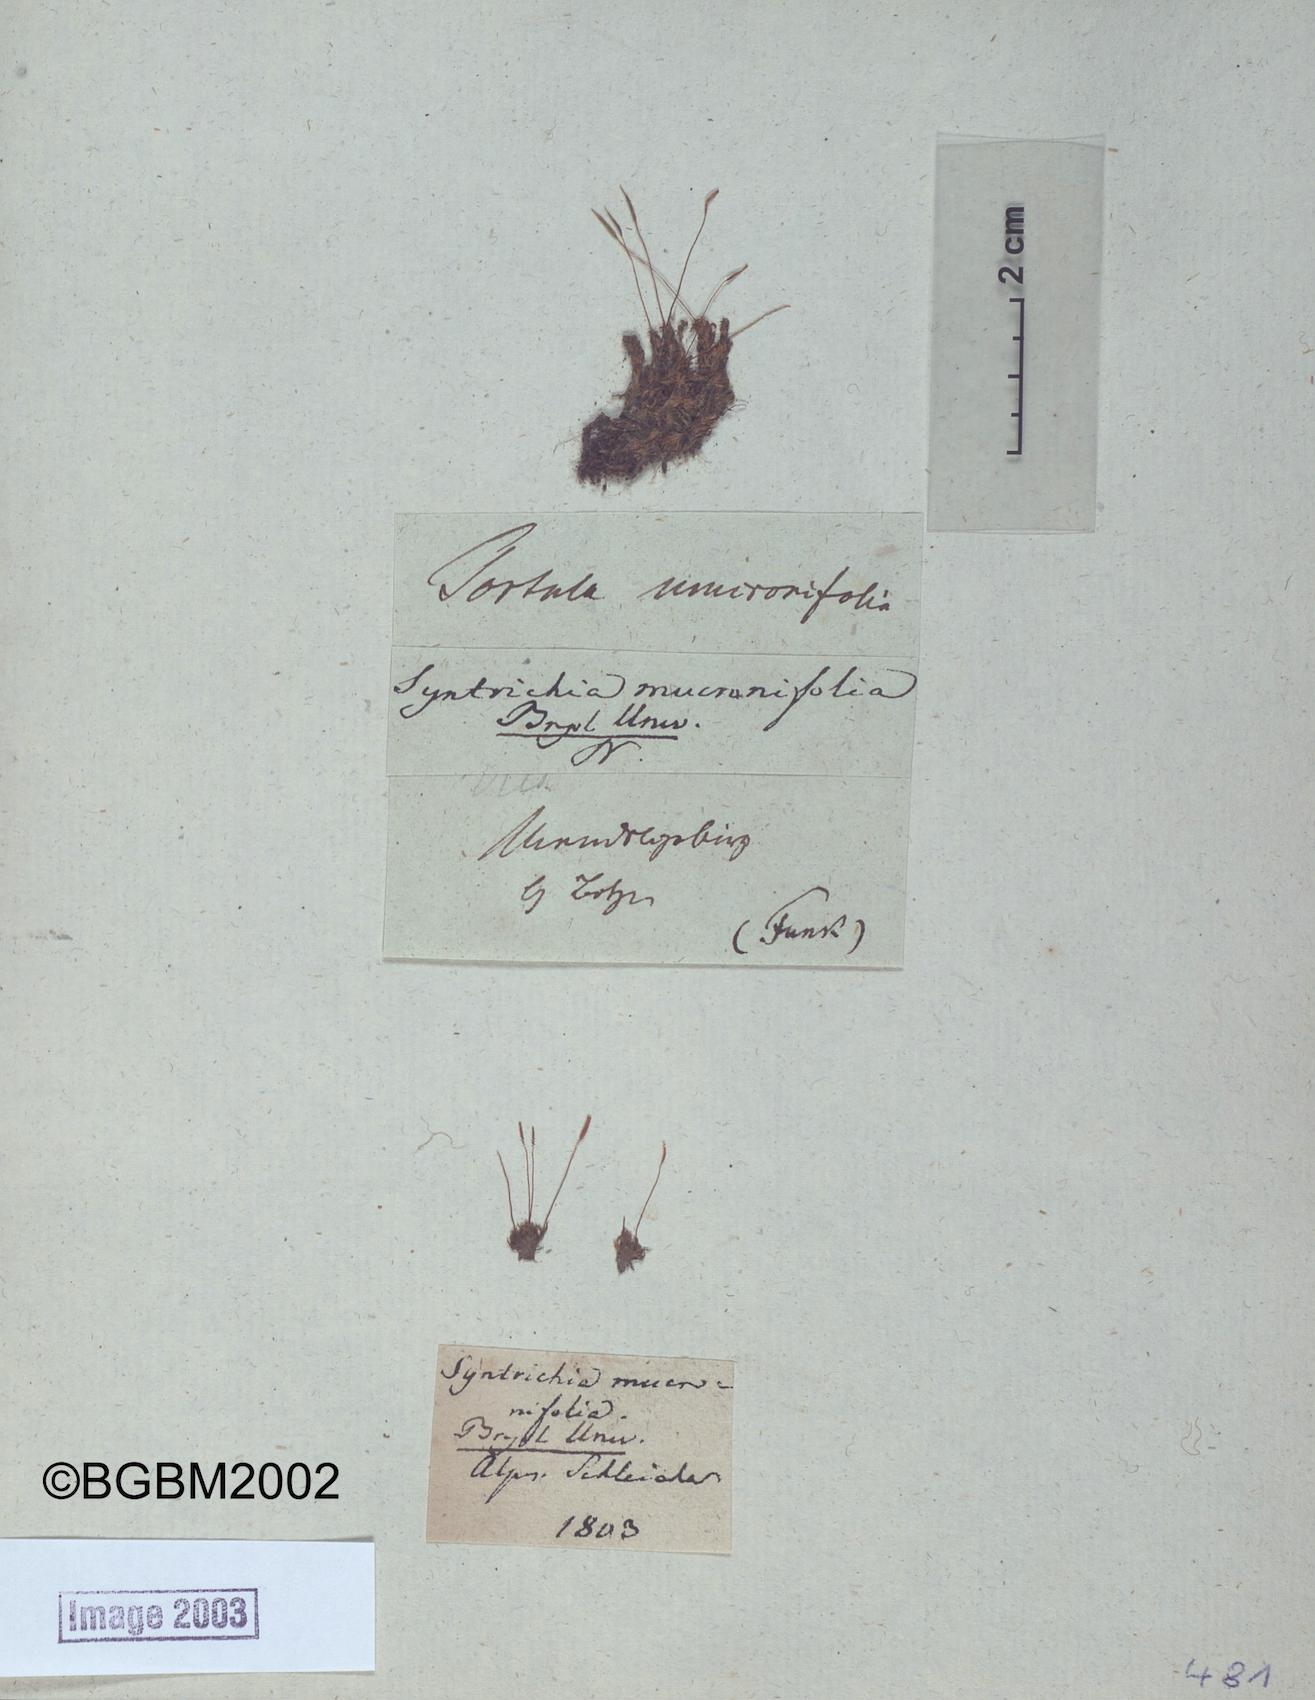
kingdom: Plantae
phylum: Bryophyta
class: Bryopsida
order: Pottiales
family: Pottiaceae
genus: Tortula
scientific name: Tortula mucronifolia
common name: Mucronate screw moss
